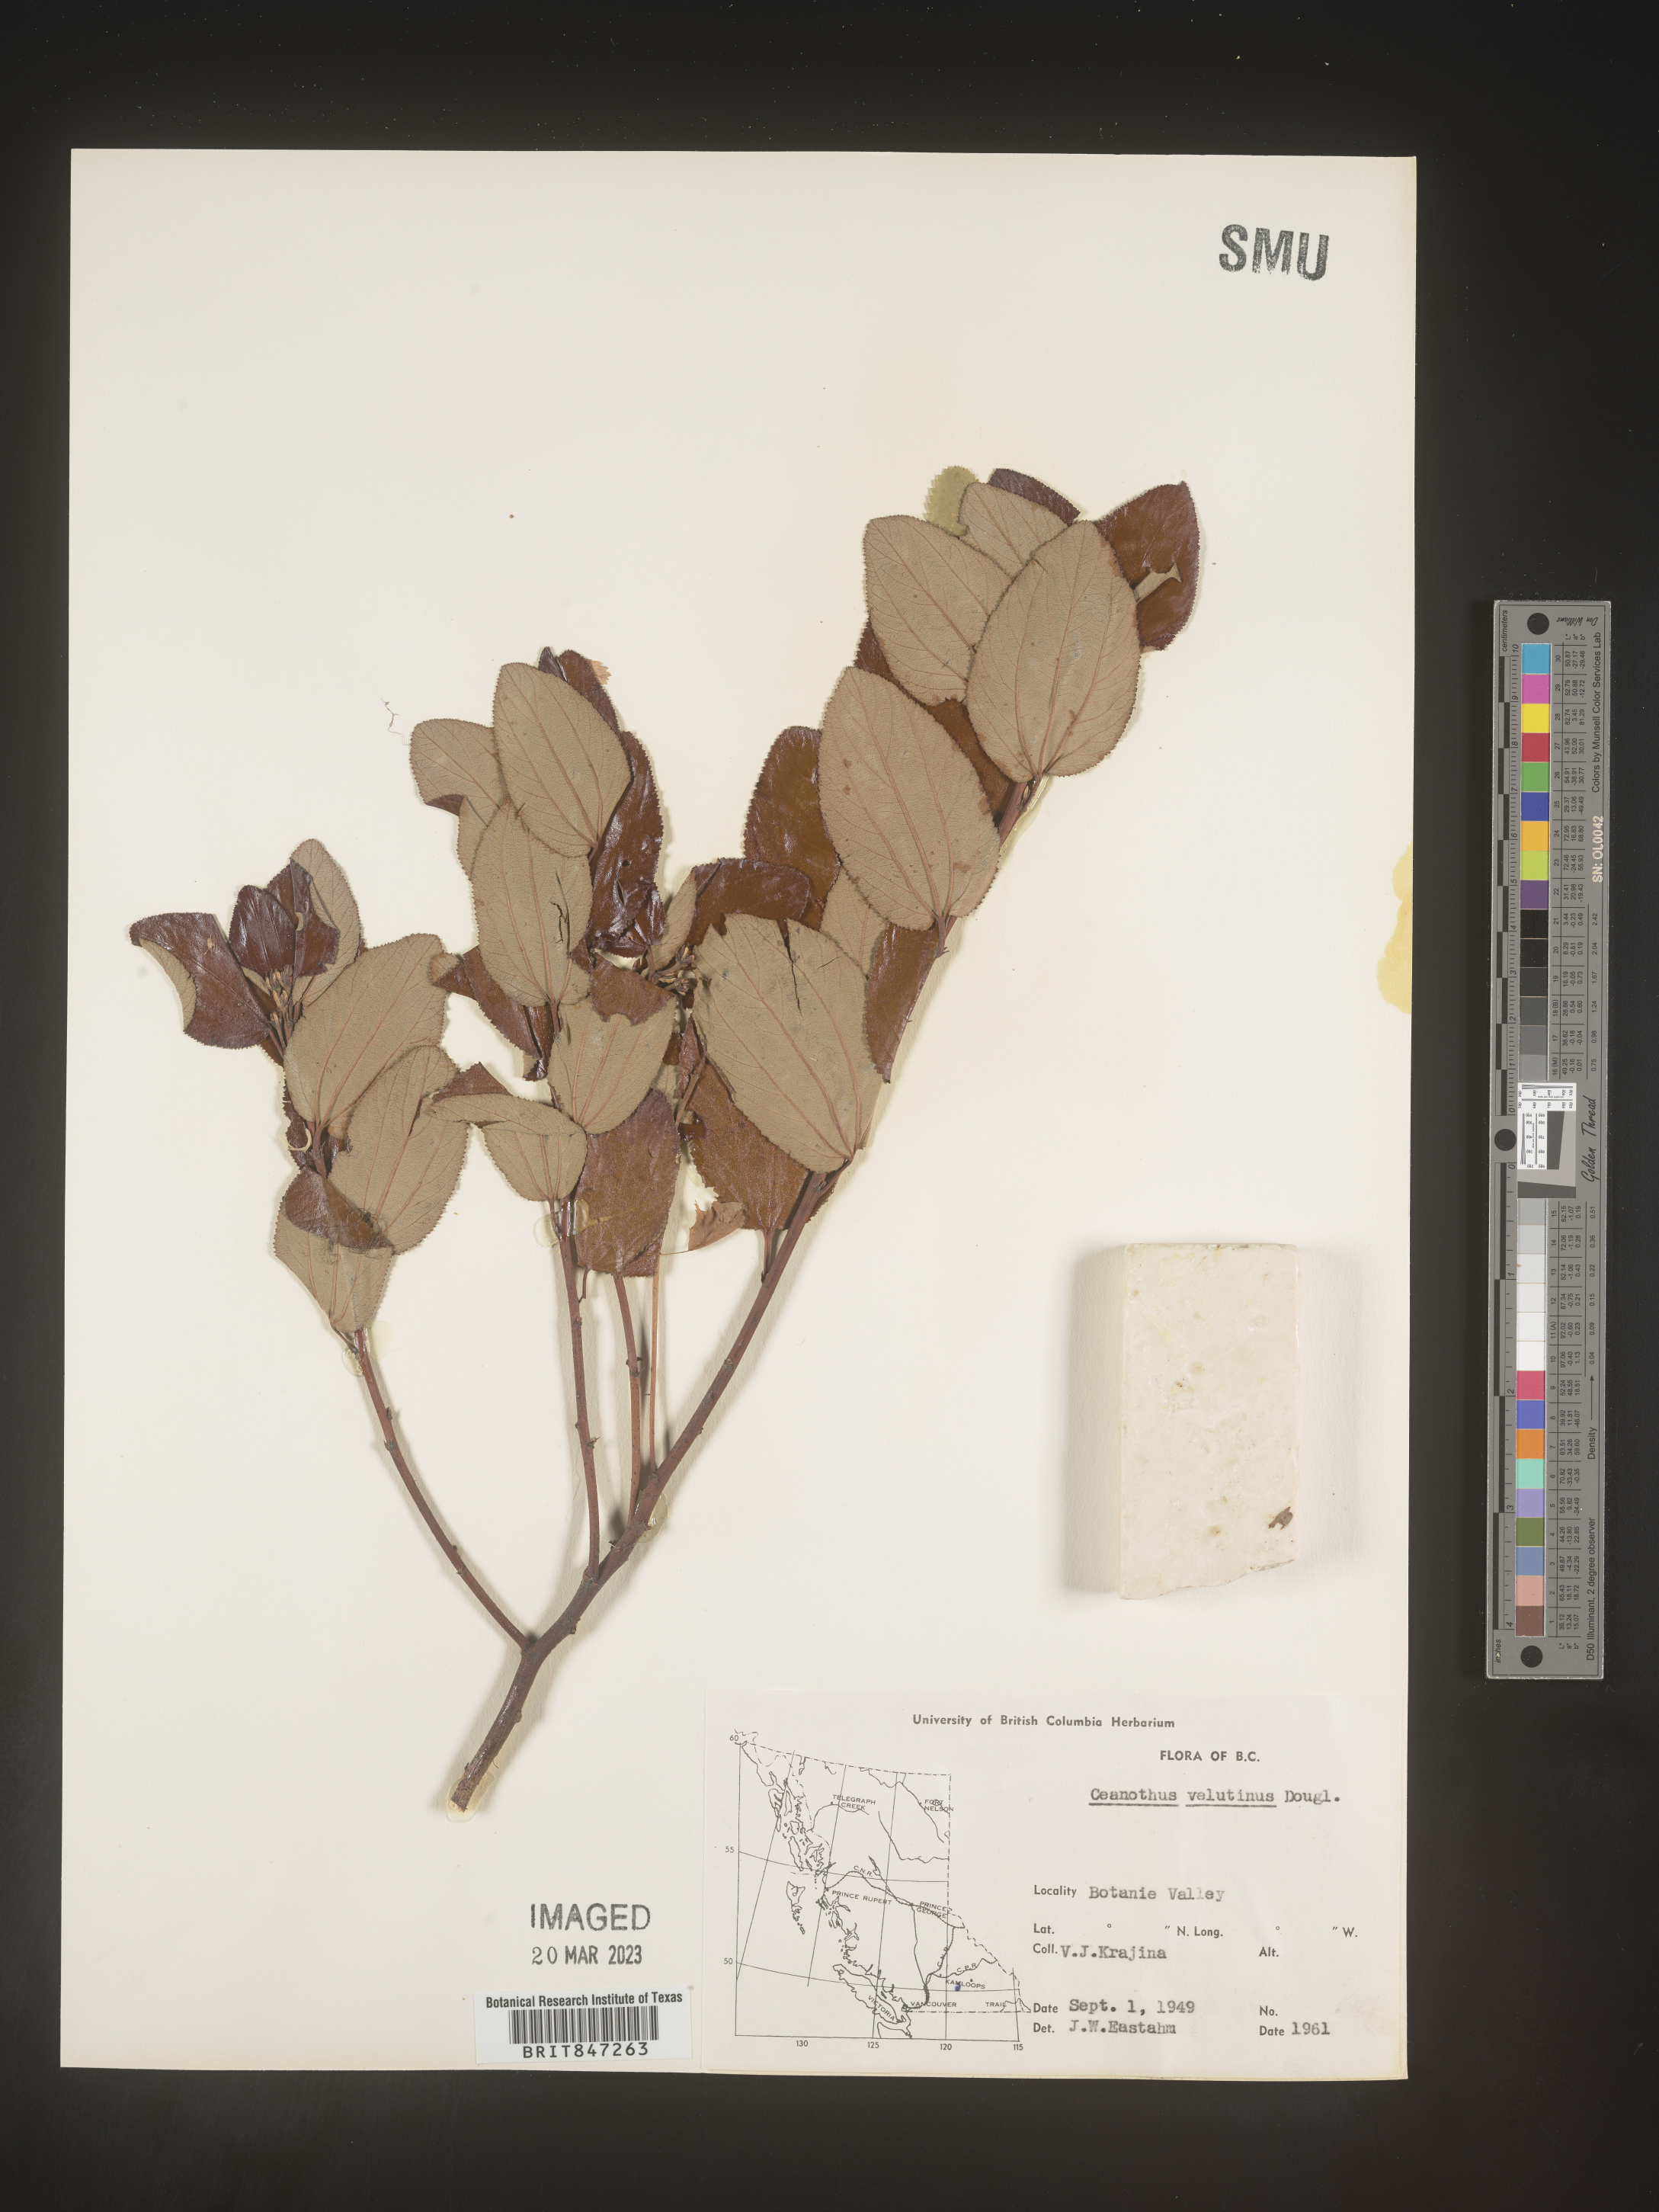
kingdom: Plantae
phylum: Tracheophyta
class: Magnoliopsida
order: Rosales
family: Rhamnaceae
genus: Ceanothus
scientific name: Ceanothus velutinus
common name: Snowbrush
